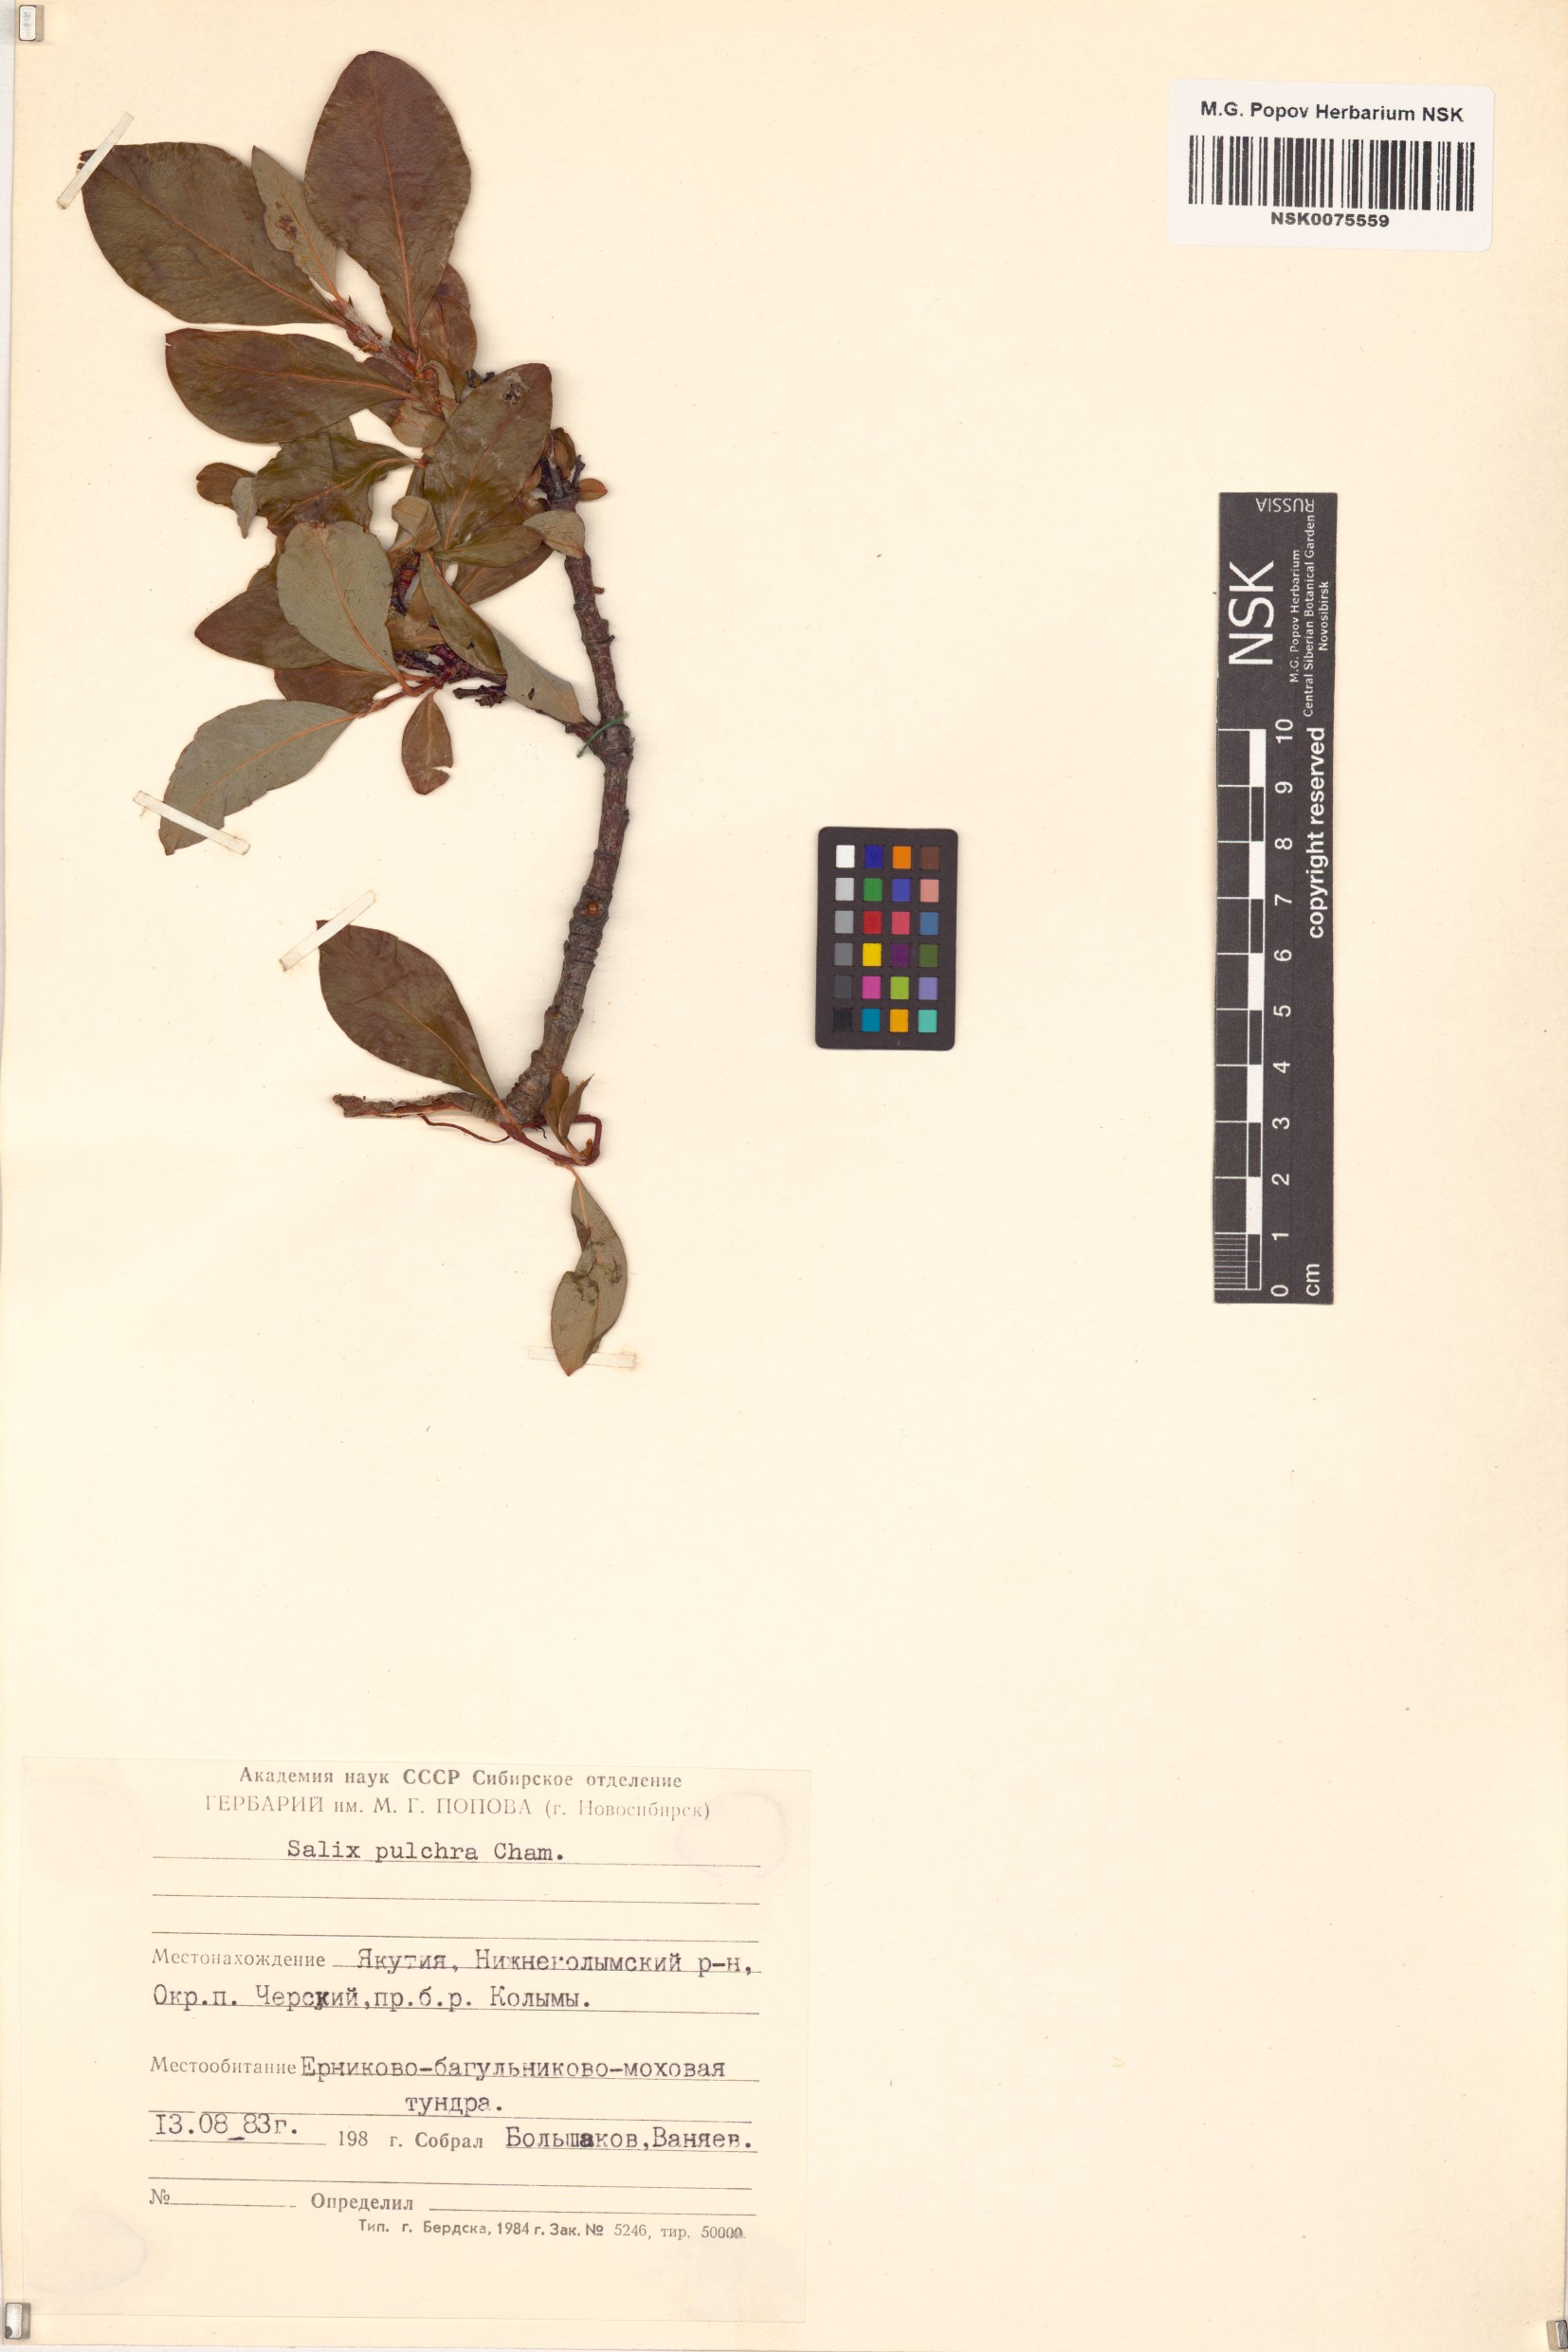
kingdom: Plantae
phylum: Tracheophyta
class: Magnoliopsida
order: Malpighiales
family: Salicaceae
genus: Salix
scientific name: Salix pulchra
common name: Diamond-leaved willow
